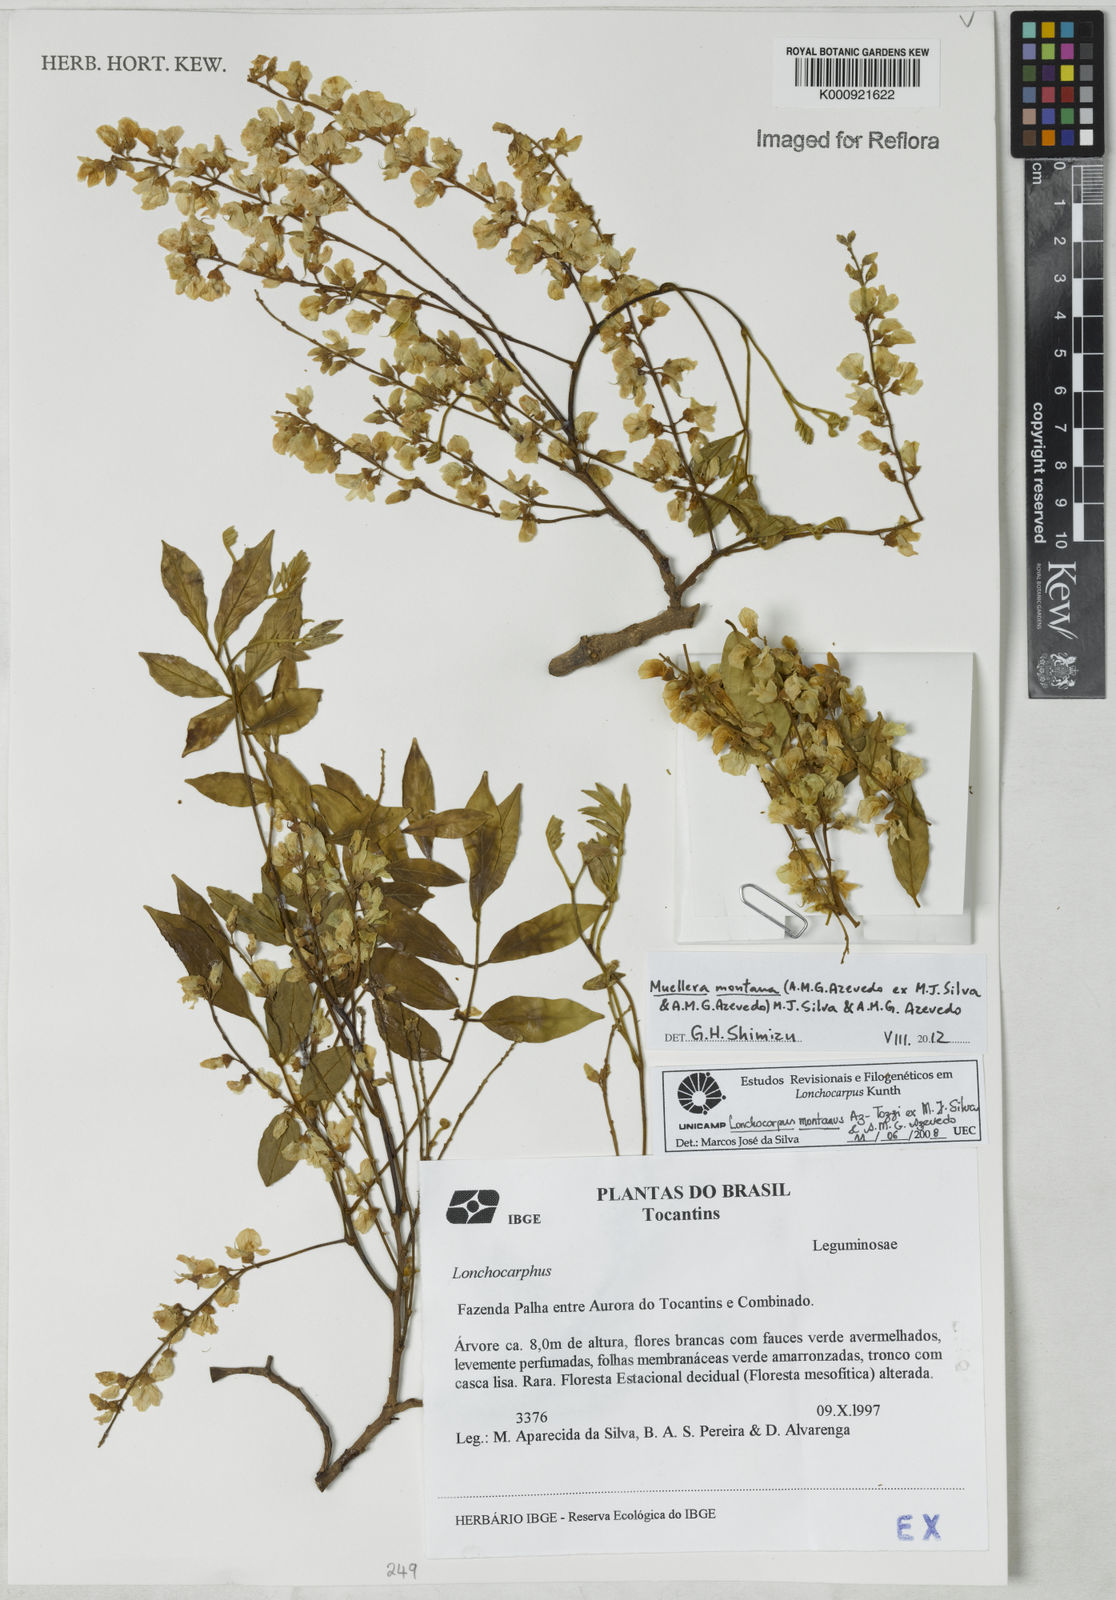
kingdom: Plantae
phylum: Tracheophyta
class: Magnoliopsida
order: Fabales
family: Fabaceae
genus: Muellera
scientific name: Muellera montana
